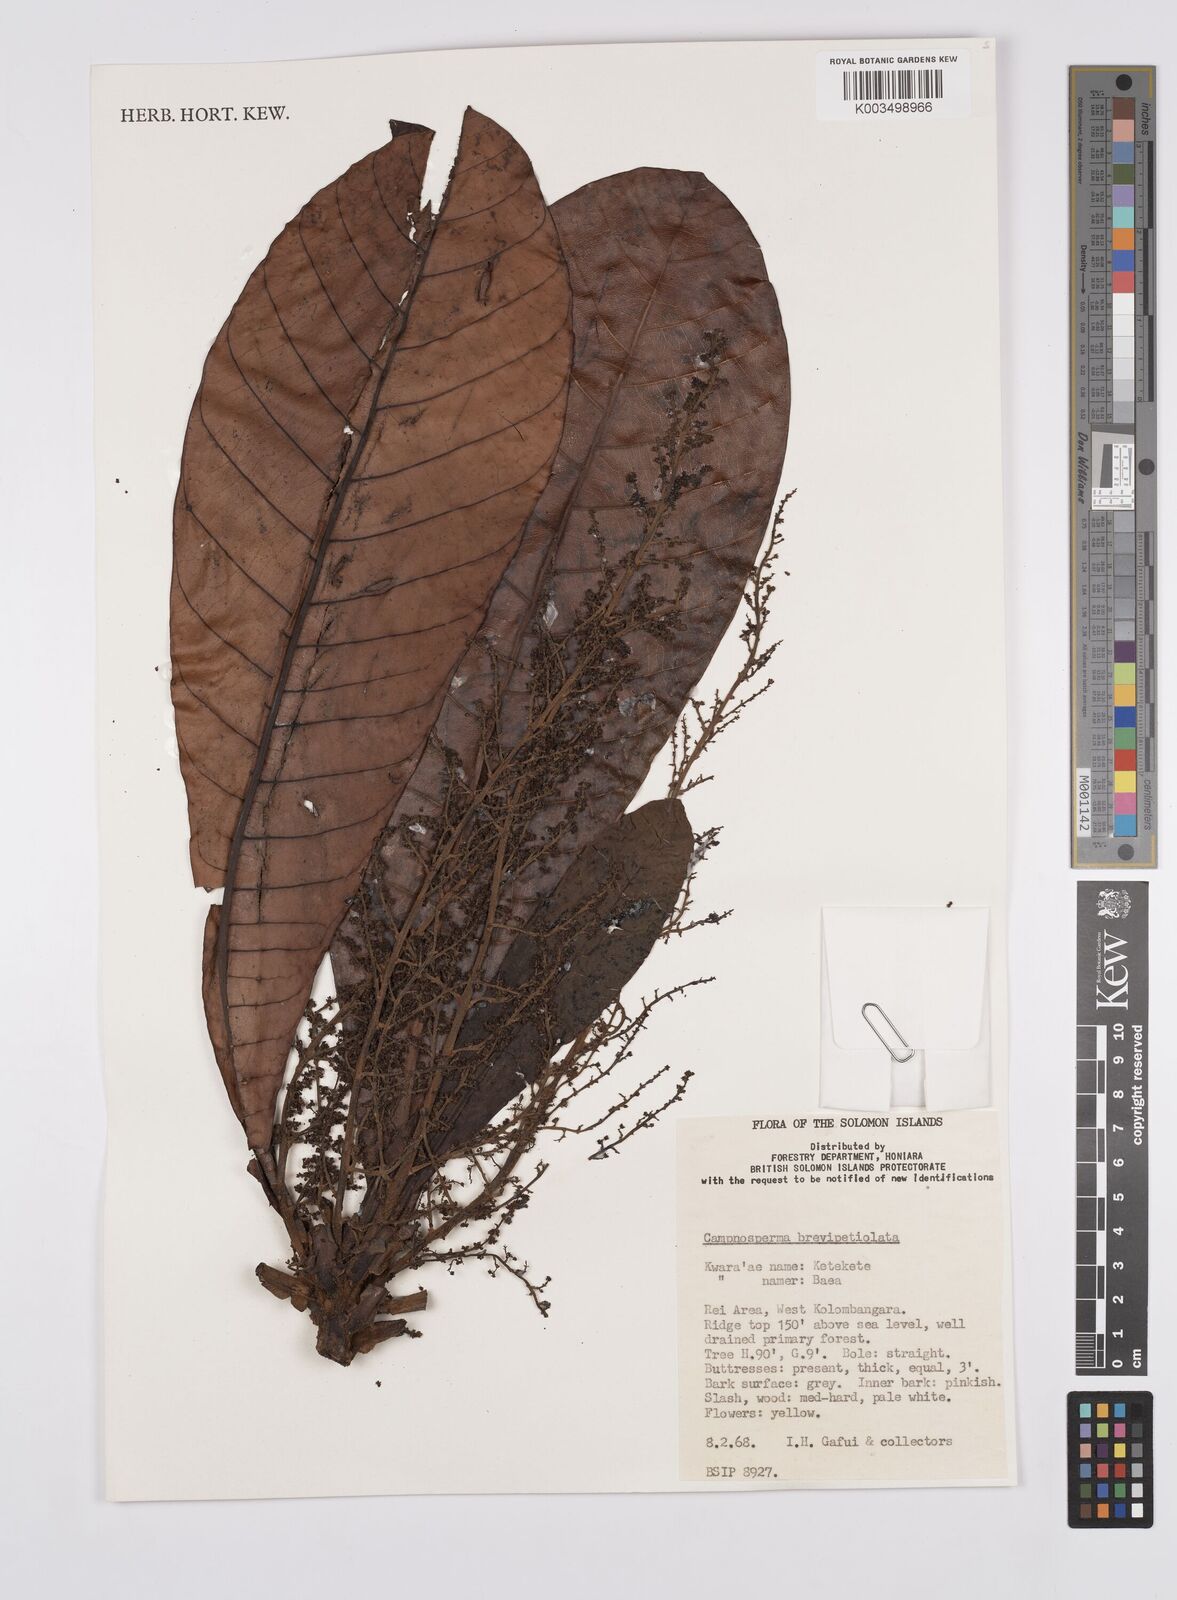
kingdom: Plantae
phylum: Tracheophyta
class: Magnoliopsida
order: Sapindales
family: Anacardiaceae
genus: Campnosperma
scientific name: Campnosperma brevipetiolatum
